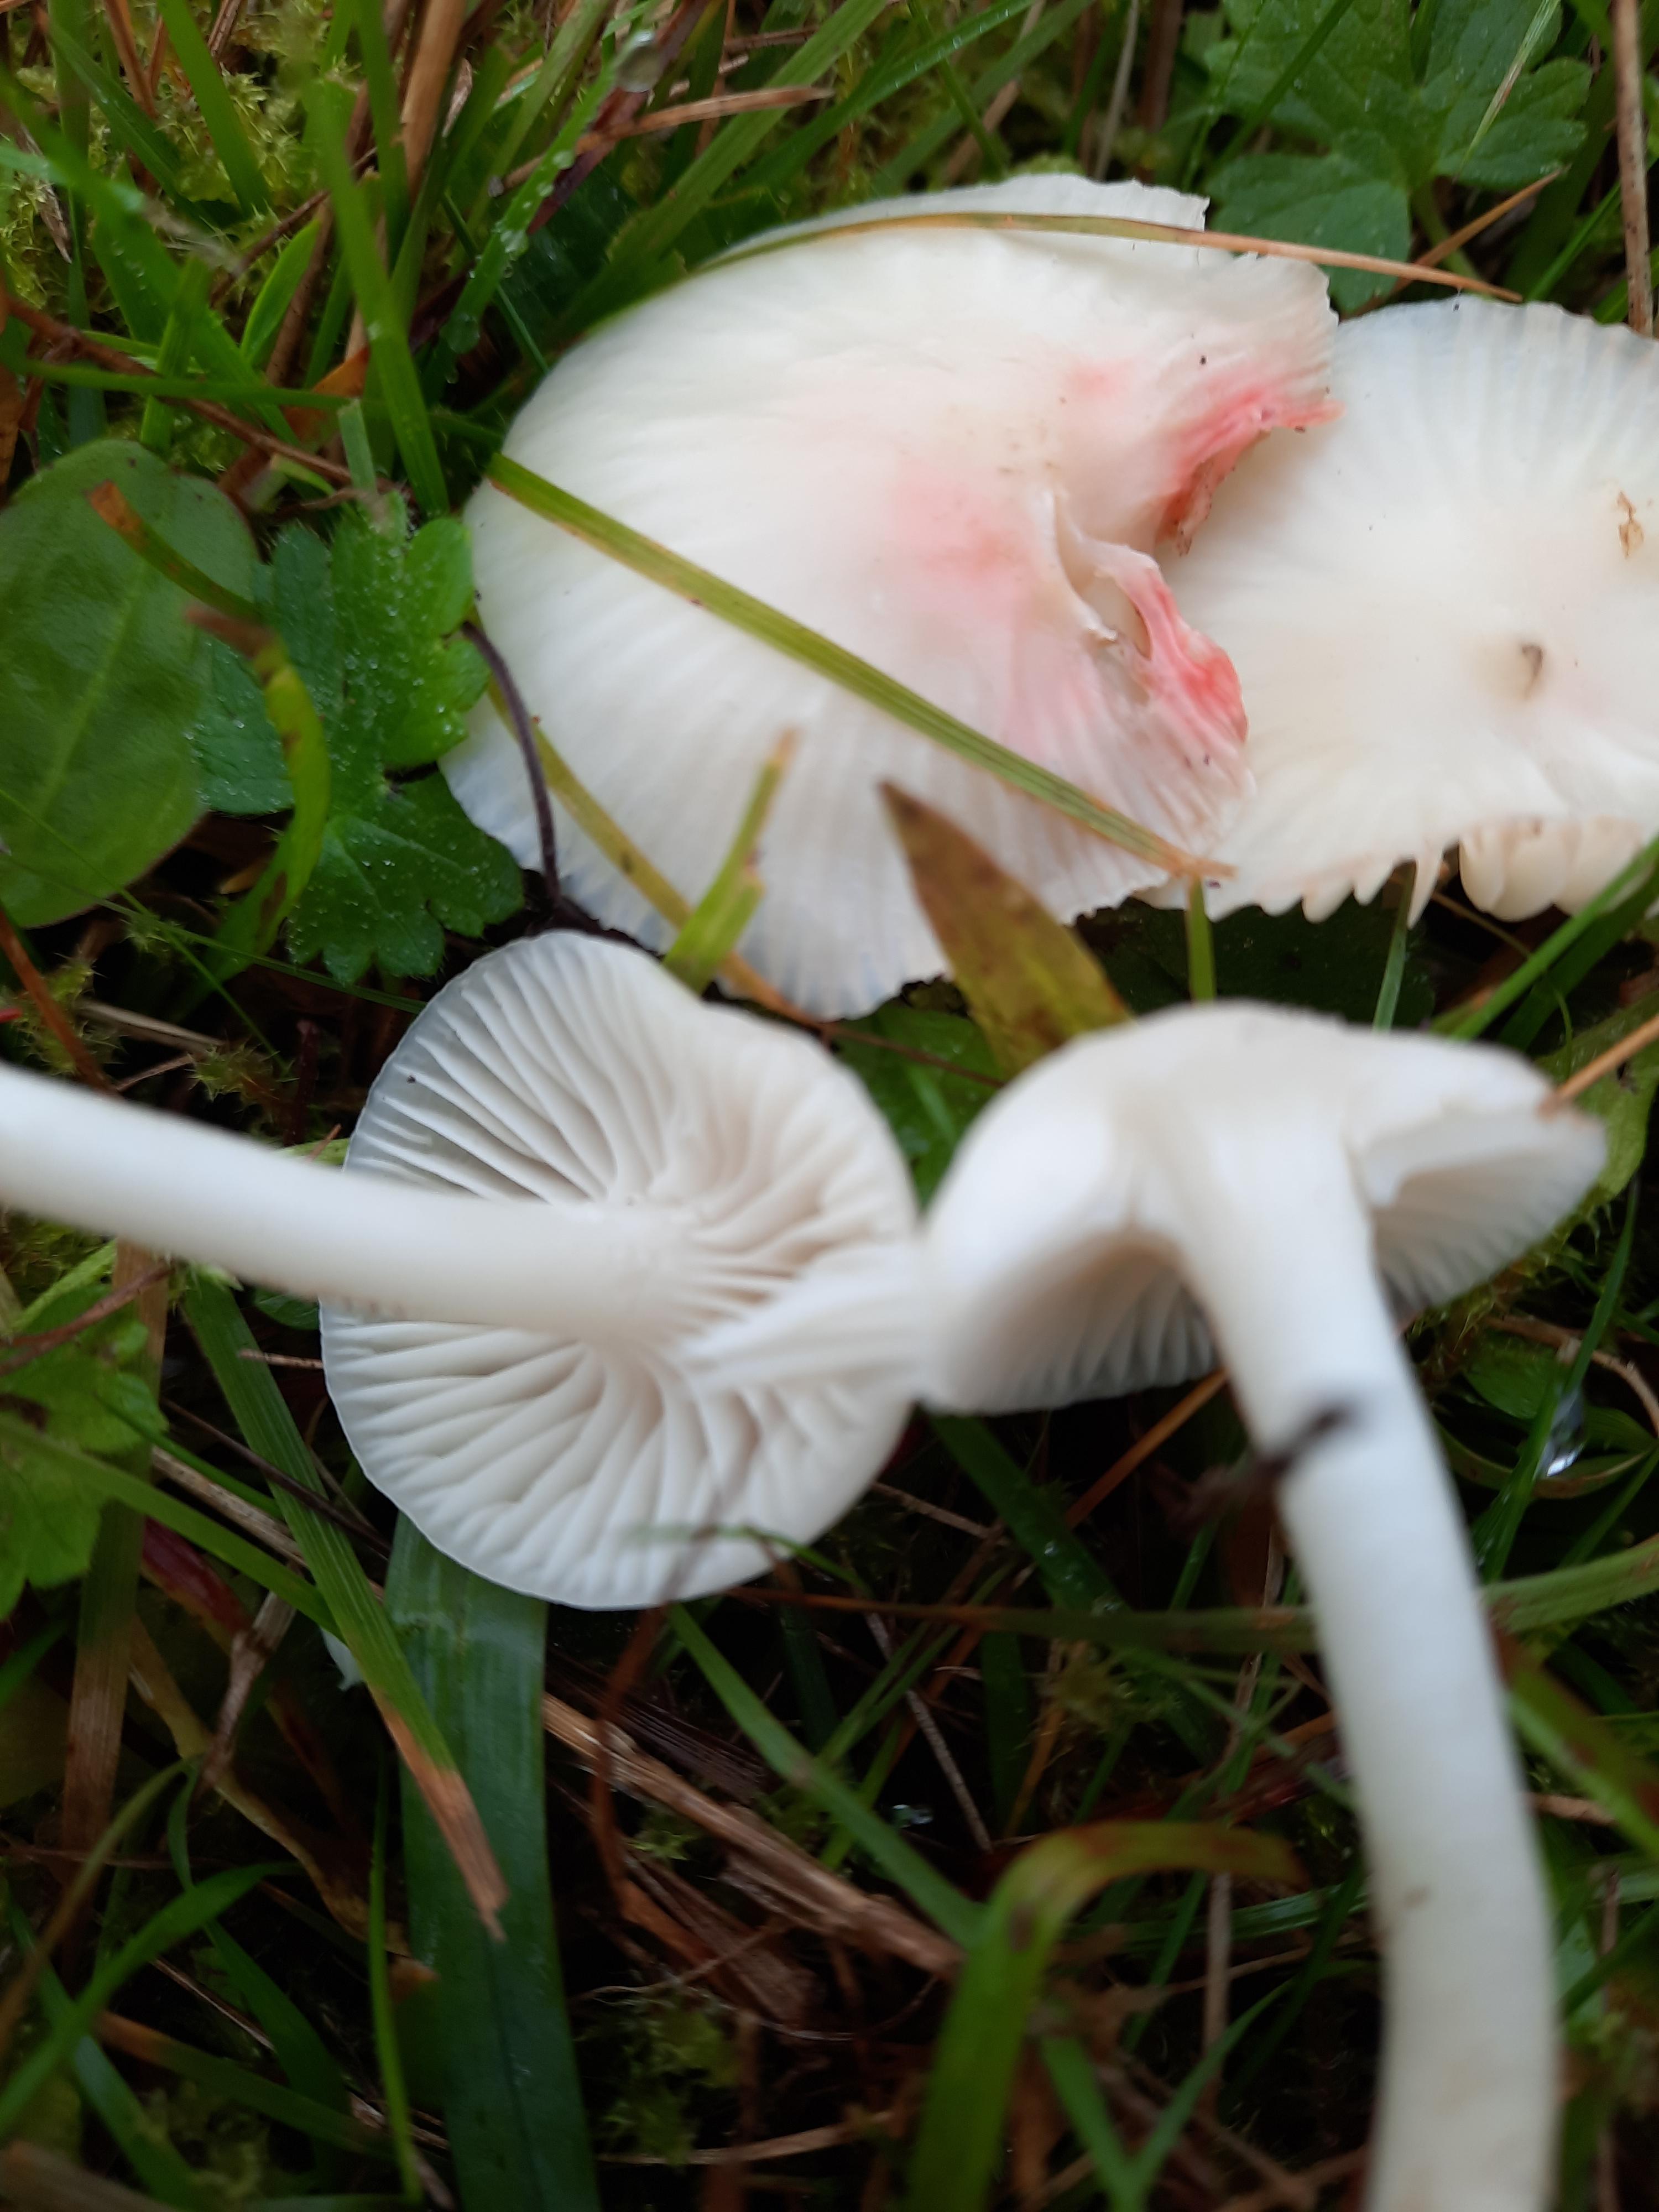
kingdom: Fungi
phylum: Basidiomycota
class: Agaricomycetes
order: Agaricales
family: Hygrophoraceae
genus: Cuphophyllus
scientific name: Cuphophyllus virgineus
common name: snehvid vokshat
